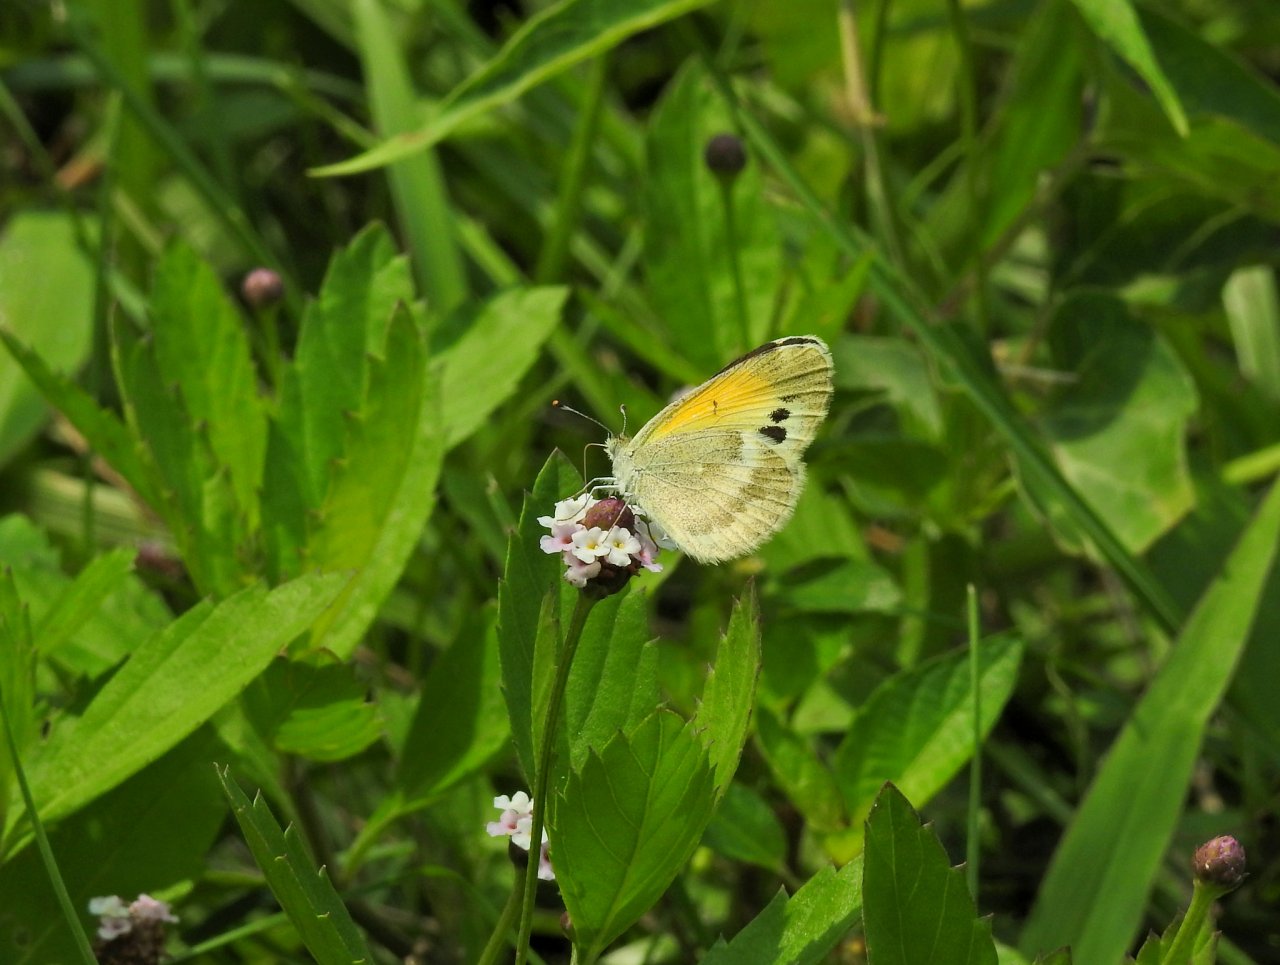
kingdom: Animalia
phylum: Arthropoda
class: Insecta
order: Lepidoptera
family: Pieridae
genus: Nathalis
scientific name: Nathalis iole
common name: Dainty Sulphur
